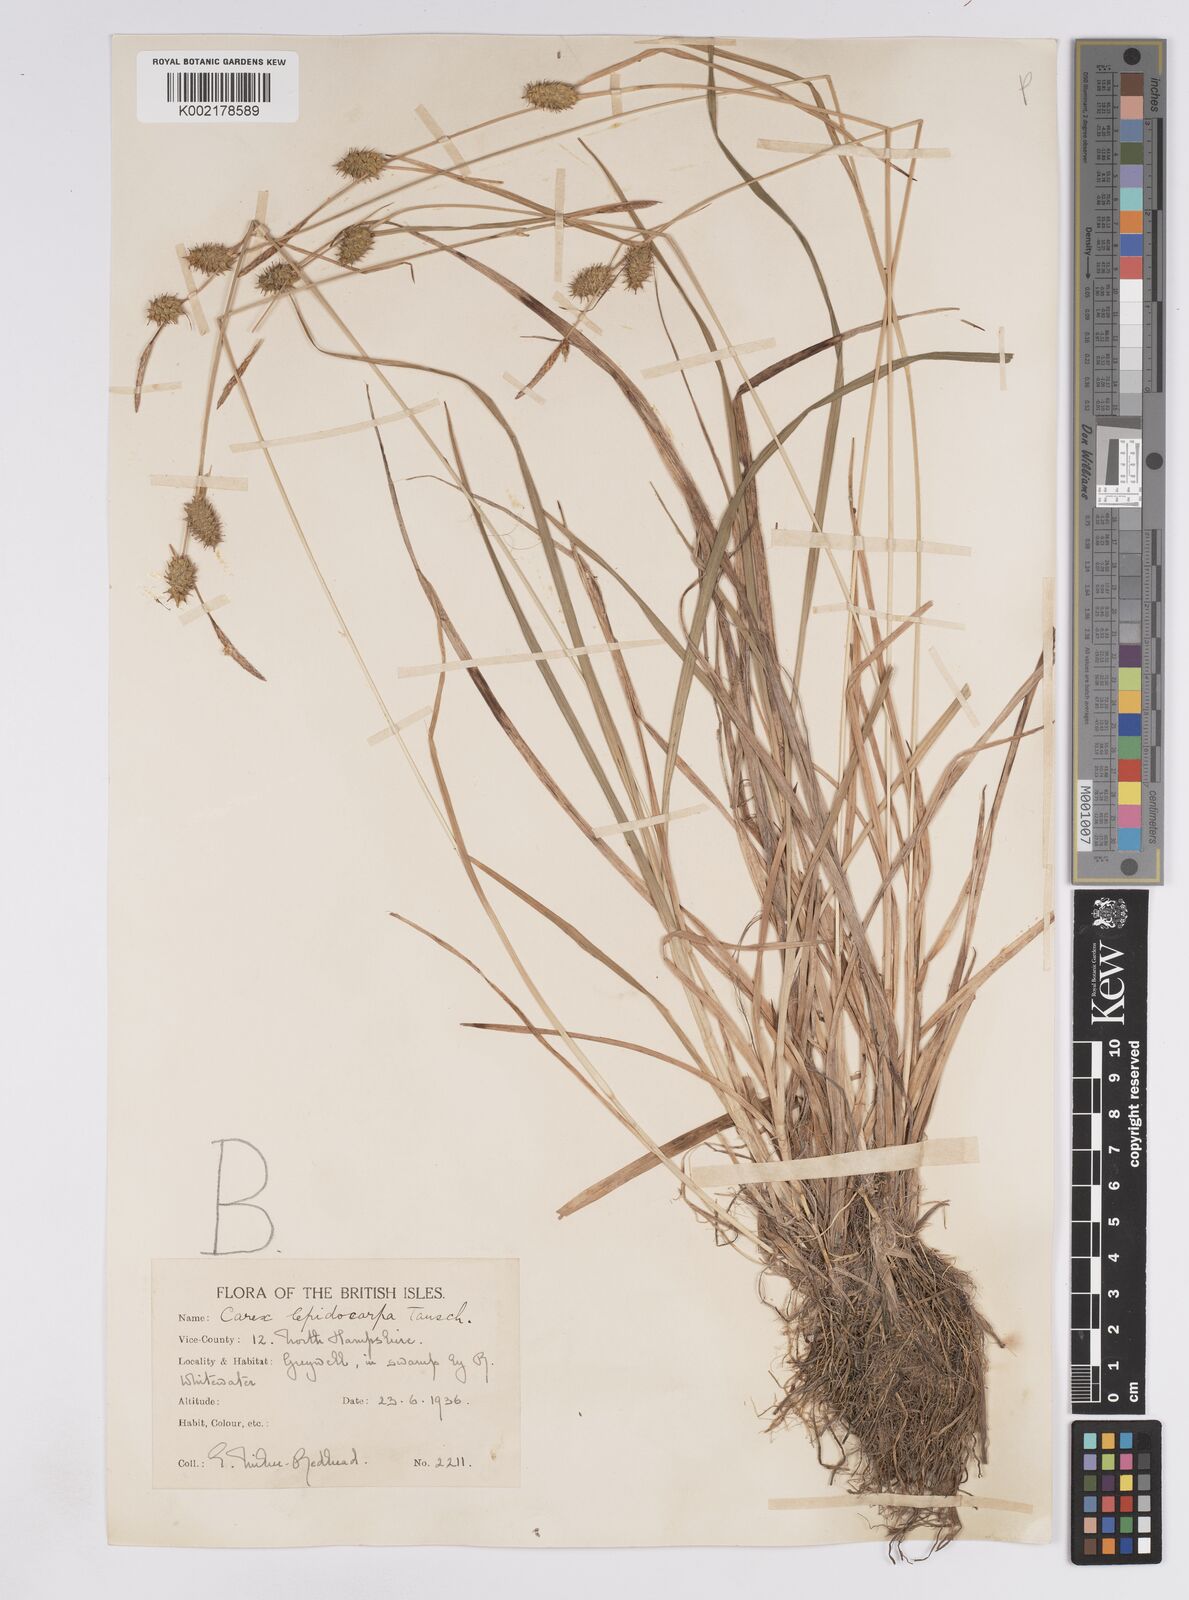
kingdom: Plantae
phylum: Tracheophyta
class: Liliopsida
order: Poales
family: Cyperaceae
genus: Carex
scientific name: Carex lepidocarpa
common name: Long-stalked yellow-sedge
